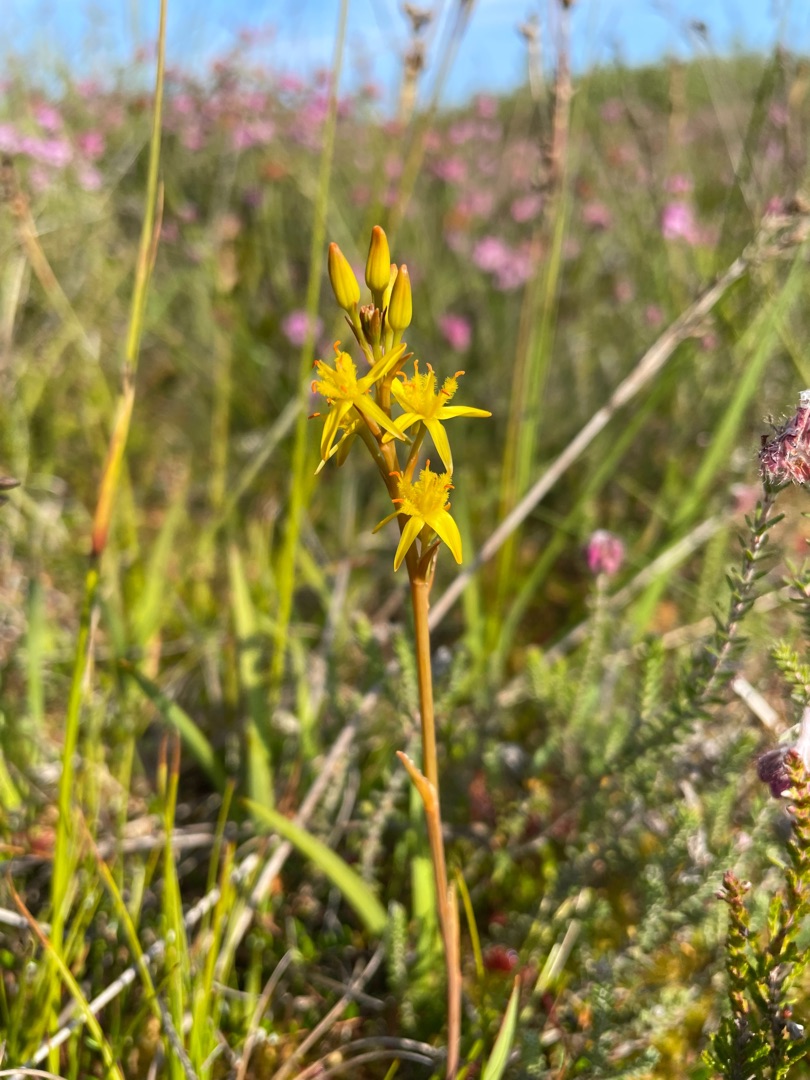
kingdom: Plantae
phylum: Tracheophyta
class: Liliopsida
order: Dioscoreales
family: Nartheciaceae
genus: Narthecium
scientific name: Narthecium ossifragum
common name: Benbræk
